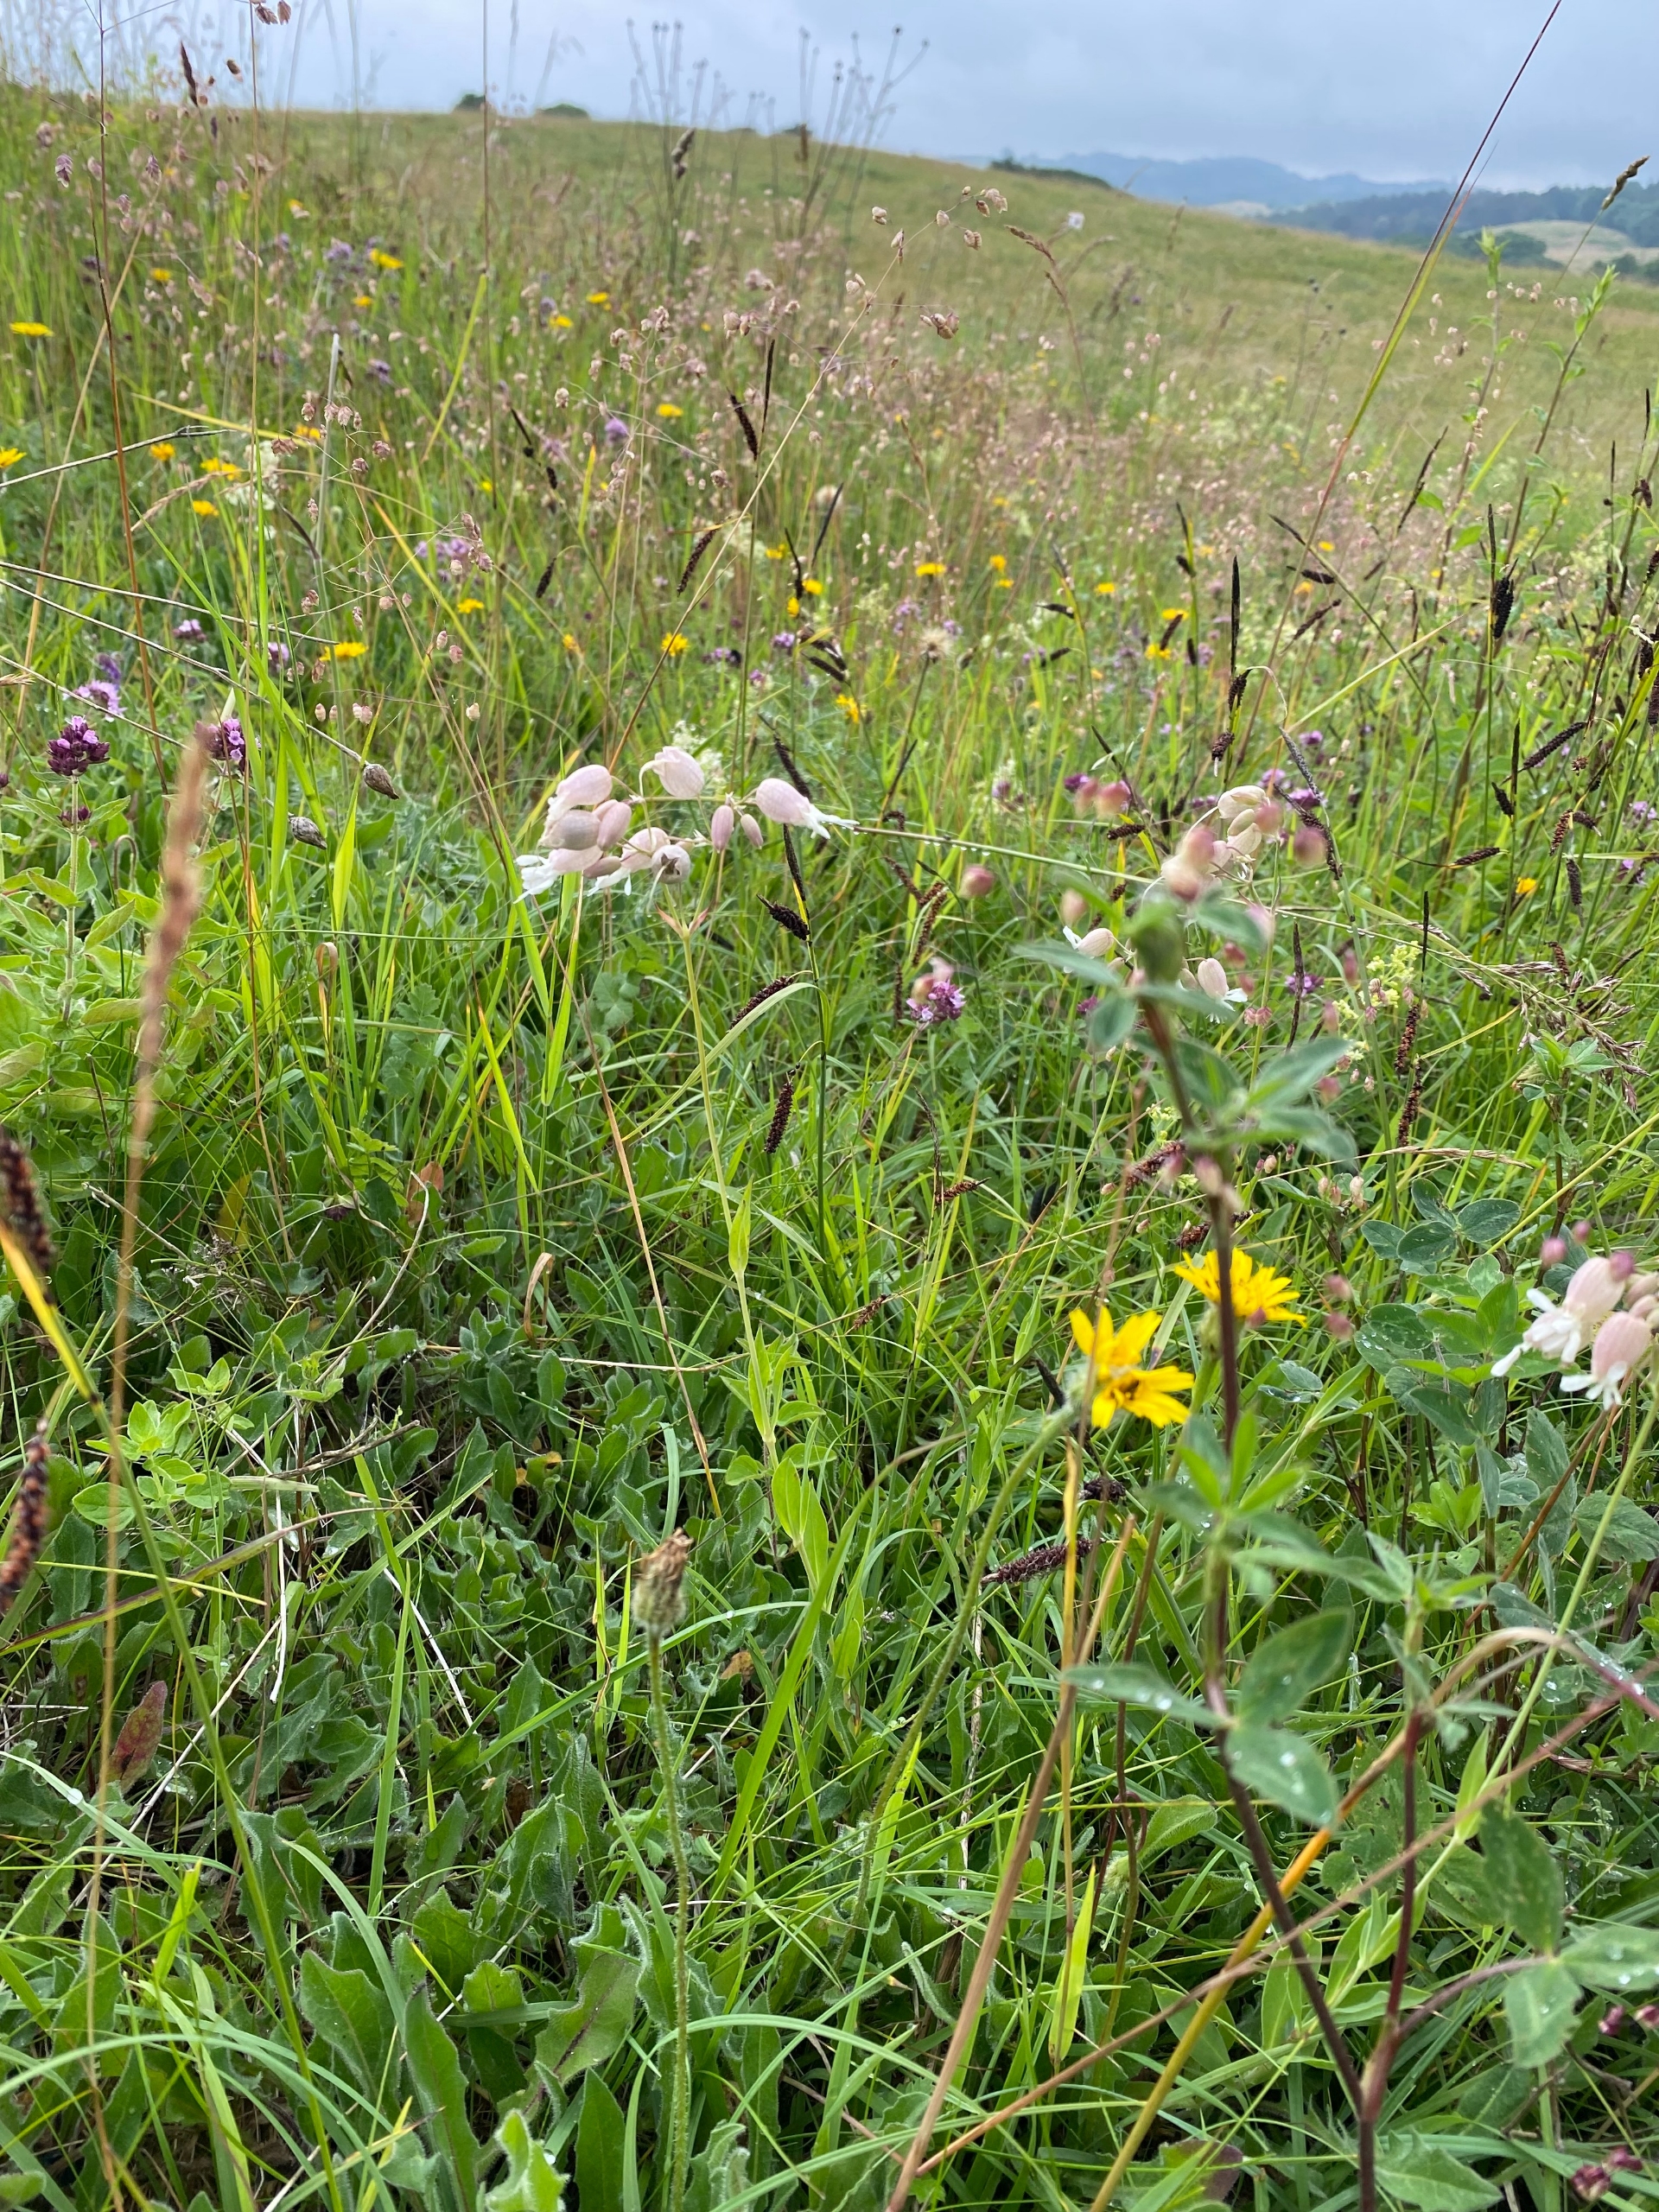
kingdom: Plantae
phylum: Tracheophyta
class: Magnoliopsida
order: Caryophyllales
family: Caryophyllaceae
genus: Silene
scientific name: Silene vulgaris
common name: Blæresmælde
